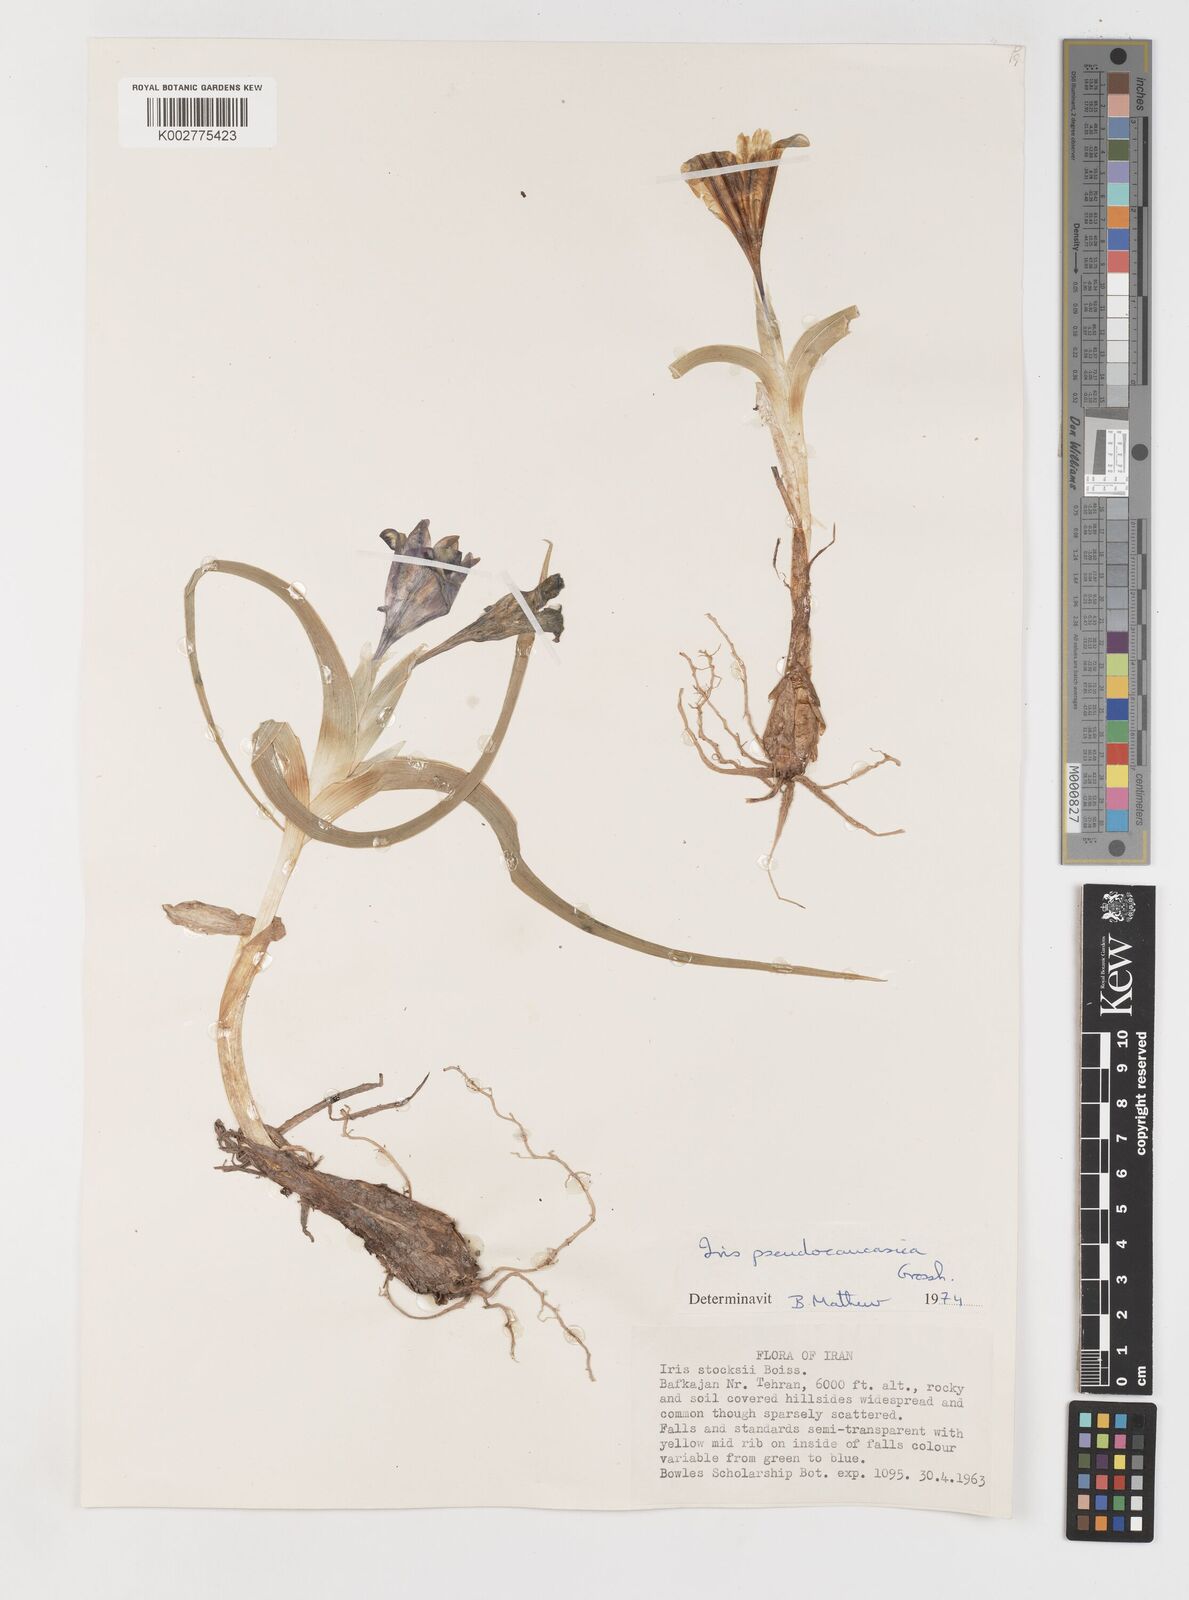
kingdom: Plantae
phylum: Tracheophyta
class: Liliopsida
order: Asparagales
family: Iridaceae
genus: Iris
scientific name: Iris pseudocaucasica
